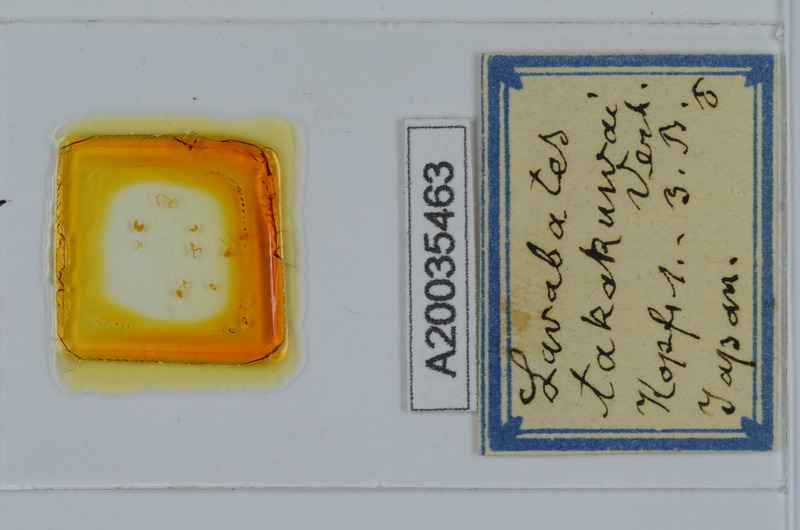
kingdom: Animalia
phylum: Arthropoda
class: Diplopoda
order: Julida
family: Nemasomatidae
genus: Antrokoreana
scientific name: Antrokoreana takakuwai
